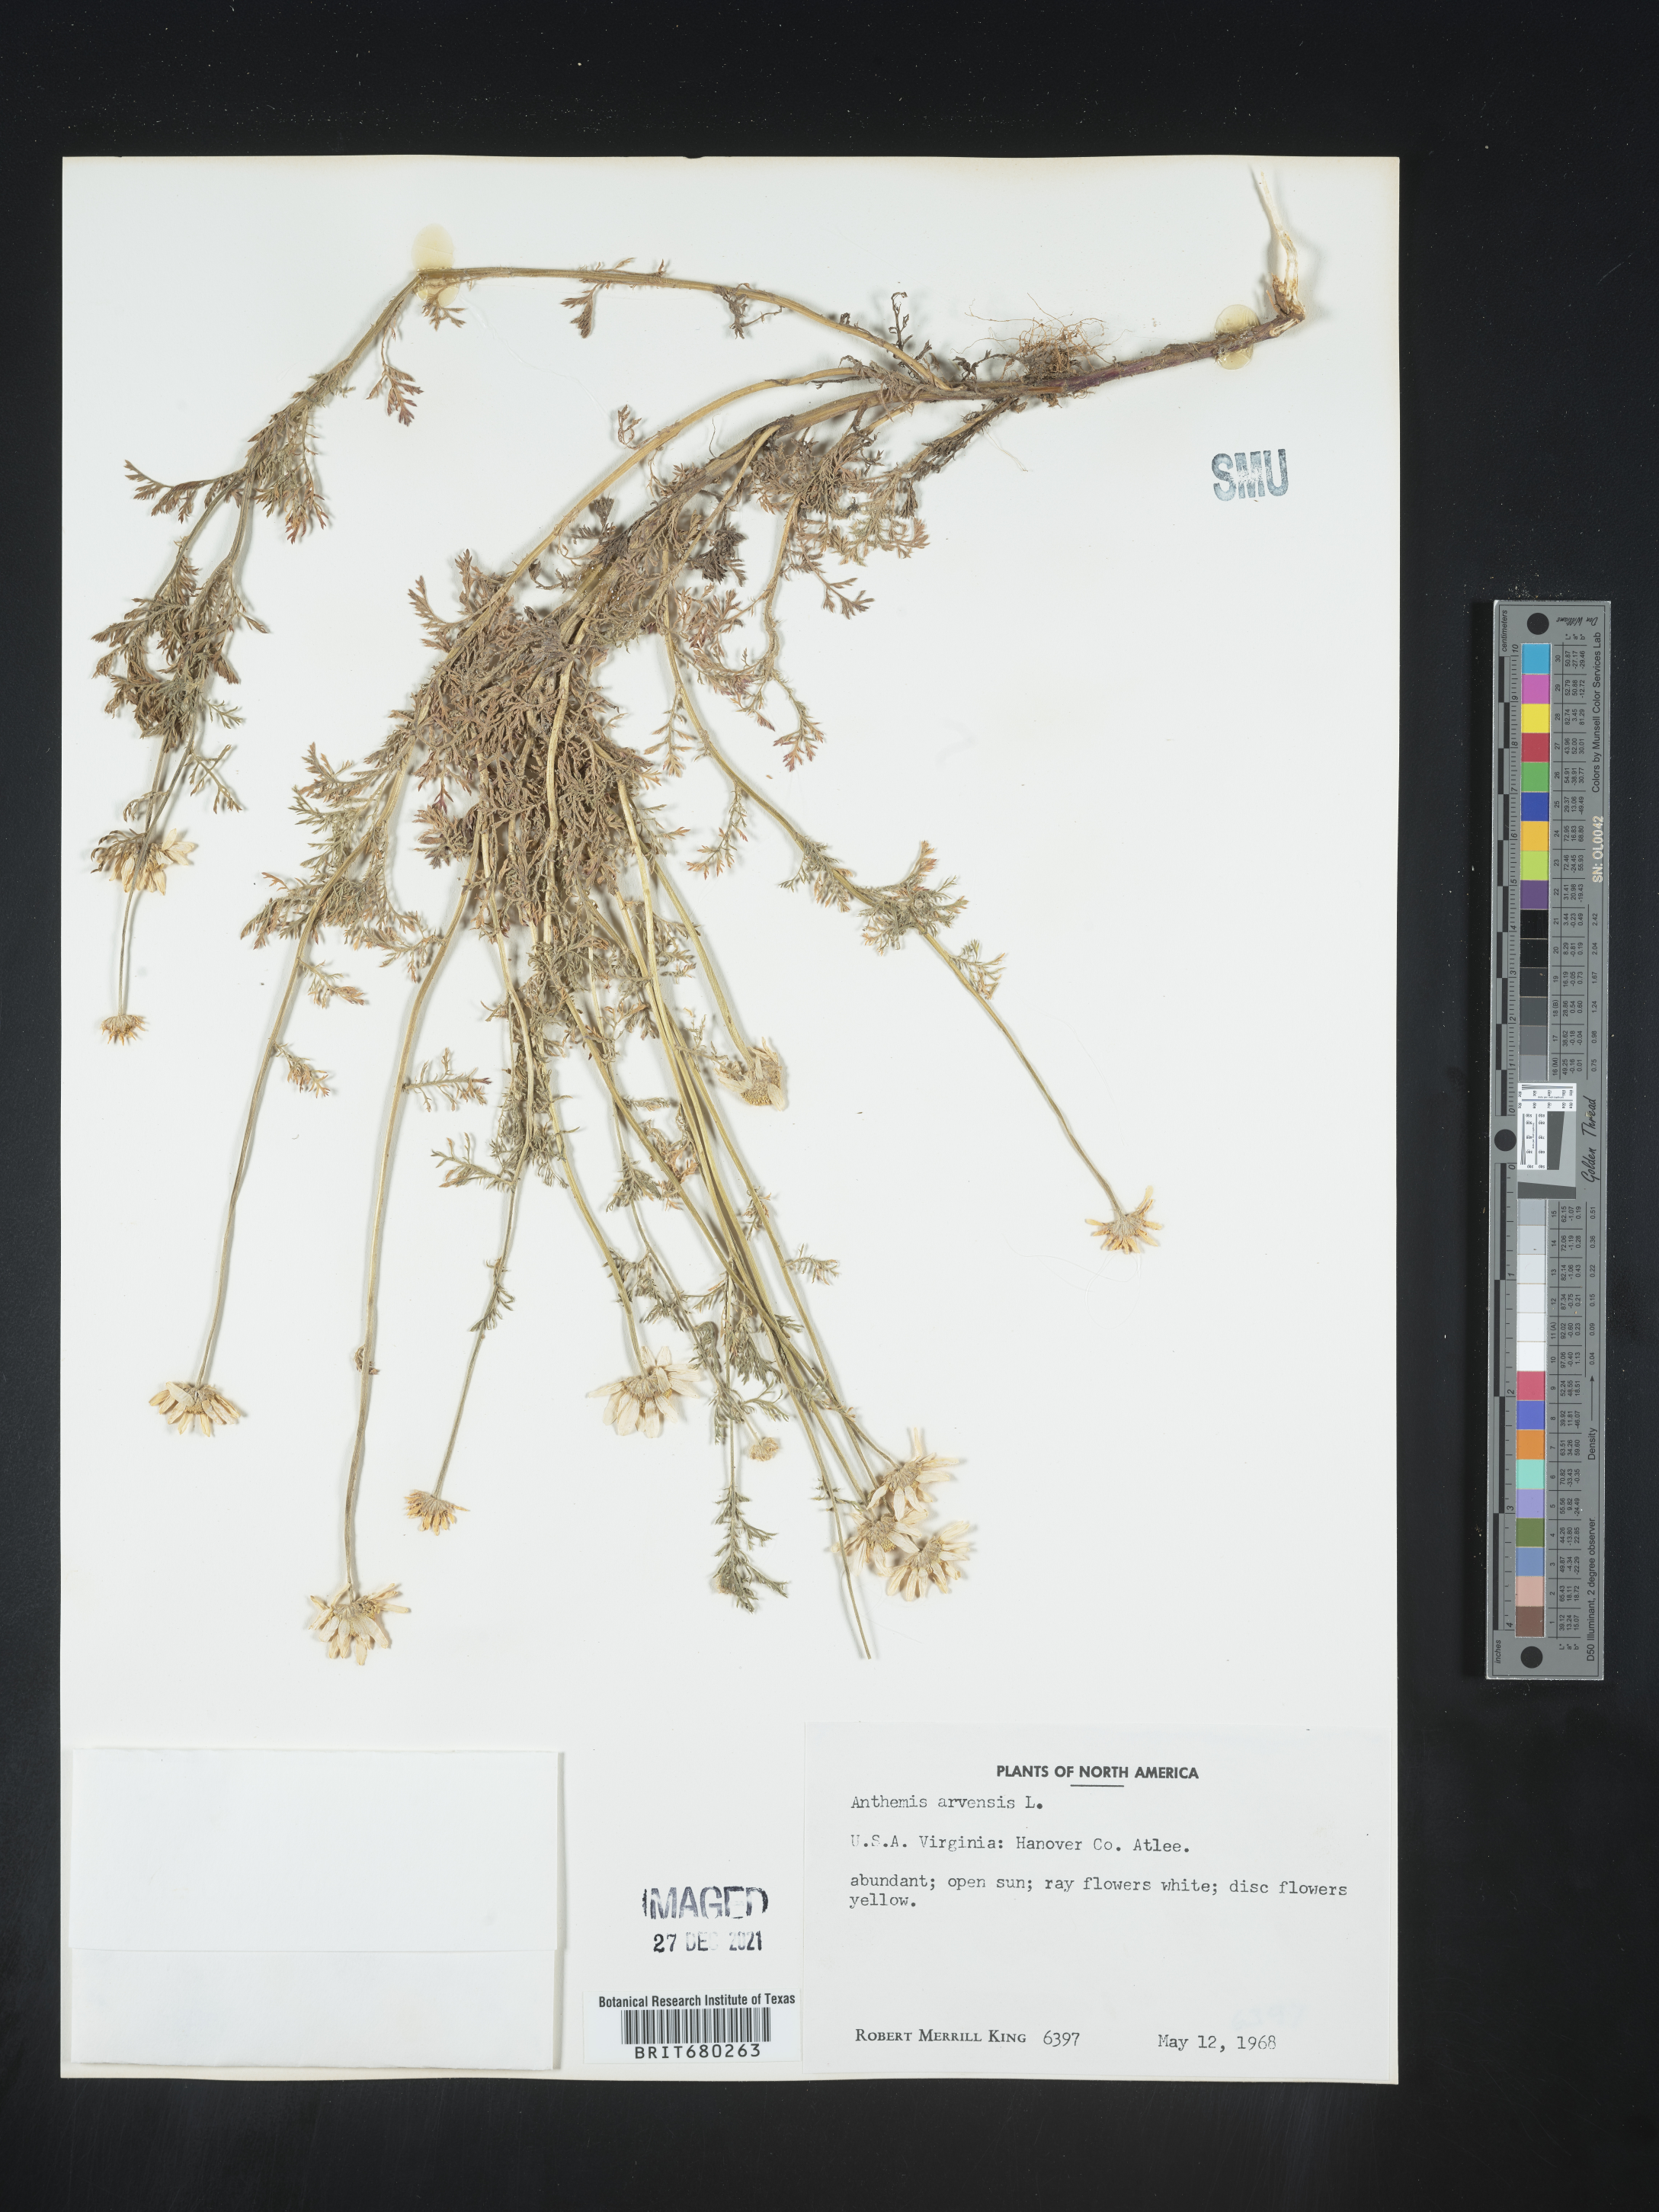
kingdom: Plantae
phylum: Tracheophyta
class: Magnoliopsida
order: Asterales
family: Asteraceae
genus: Anthemis
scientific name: Anthemis arvensis
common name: Corn chamomile
